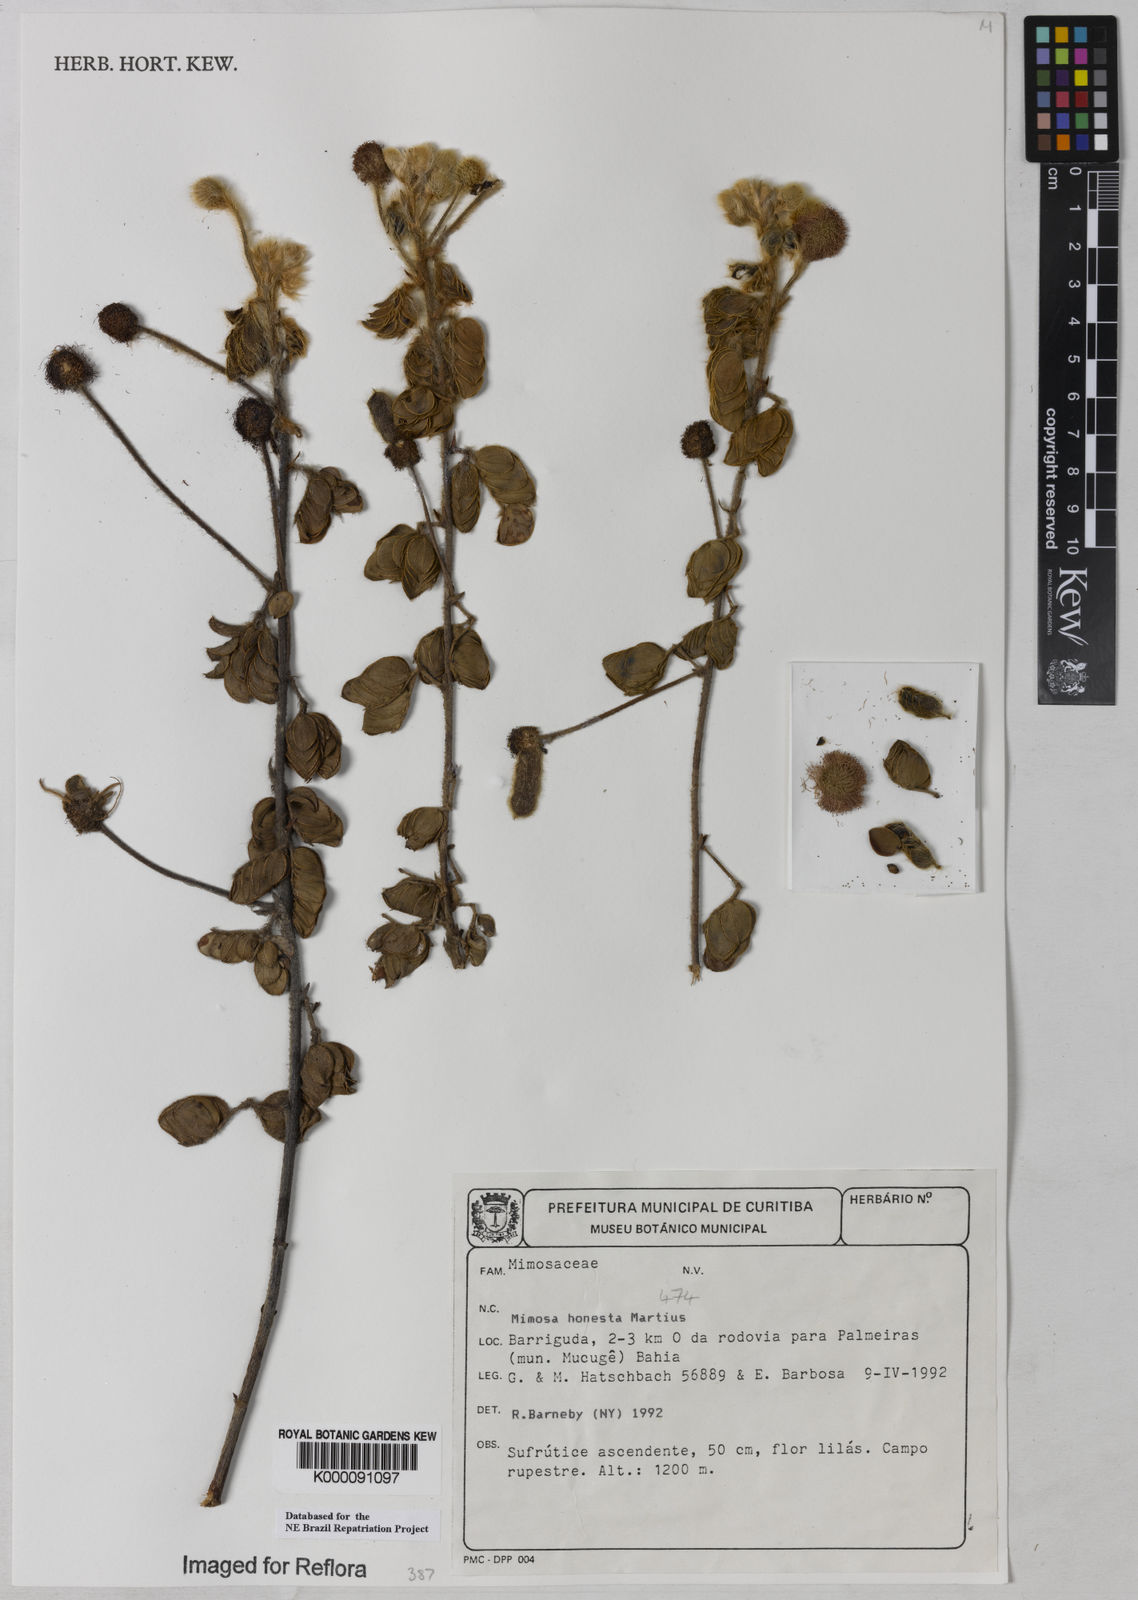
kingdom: Plantae
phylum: Tracheophyta
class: Magnoliopsida
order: Fabales
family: Fabaceae
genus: Mimosa
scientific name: Mimosa honesta
